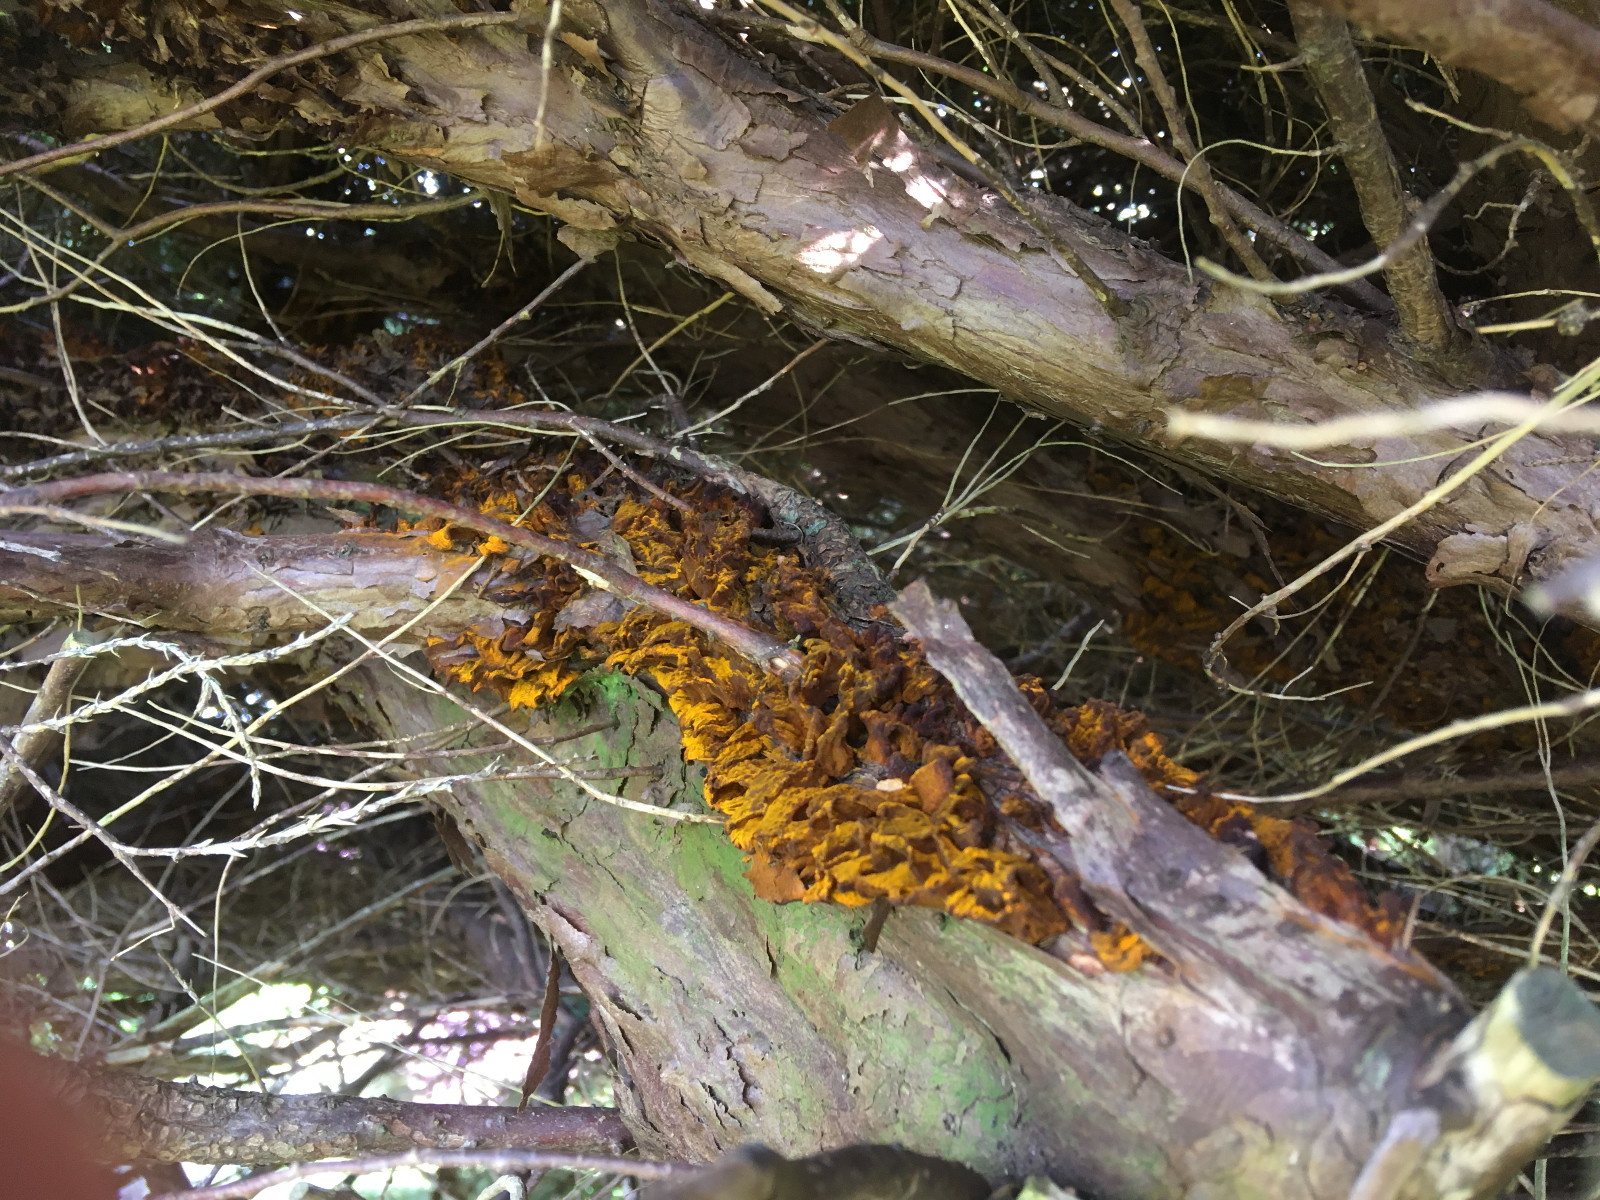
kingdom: Fungi
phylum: Basidiomycota
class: Pucciniomycetes
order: Pucciniales
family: Gymnosporangiaceae
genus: Gymnosporangium
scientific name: Gymnosporangium sabinae
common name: pæregitter-bævrerust
